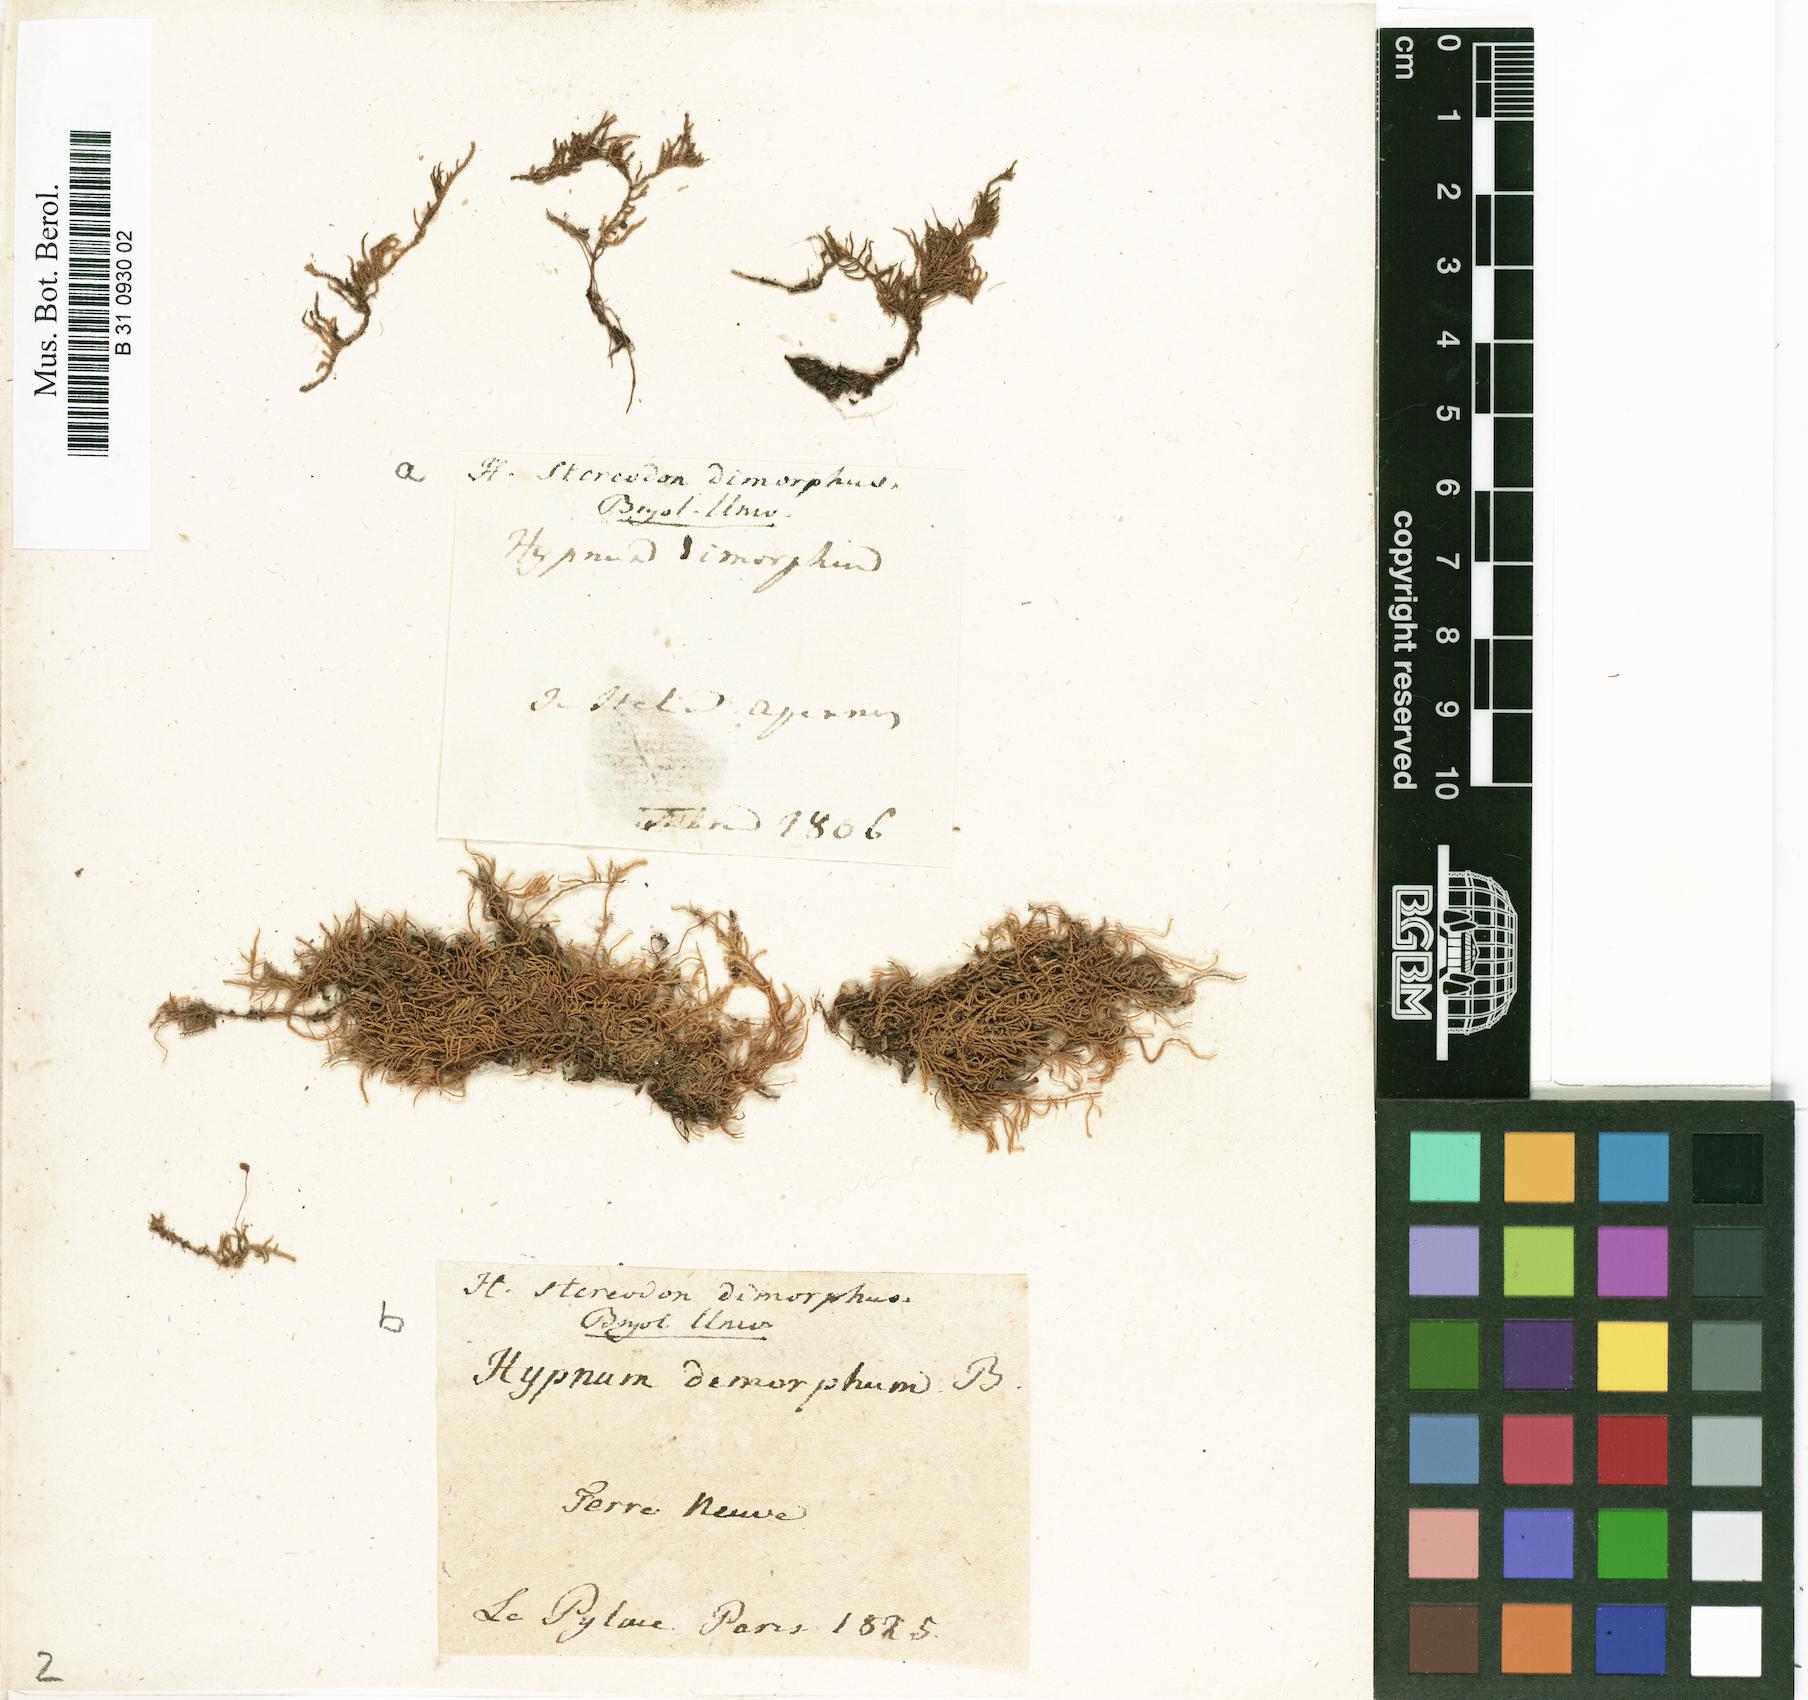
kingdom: Plantae
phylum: Bryophyta
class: Bryopsida
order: Hypnales
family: Heterocladiellaceae
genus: Heterocladiella
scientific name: Heterocladiella dimorpha
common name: Dimorphous tamarisk-moss
